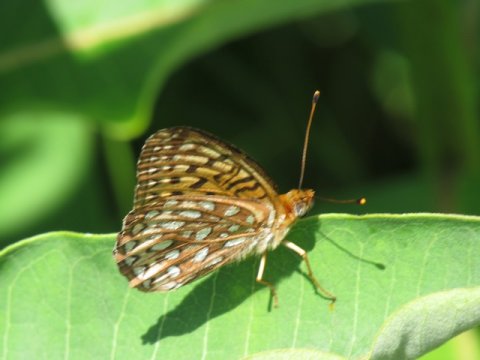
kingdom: Animalia
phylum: Arthropoda
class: Insecta
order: Lepidoptera
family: Nymphalidae
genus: Speyeria
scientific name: Speyeria atlantis
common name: Atlantis Fritillary
